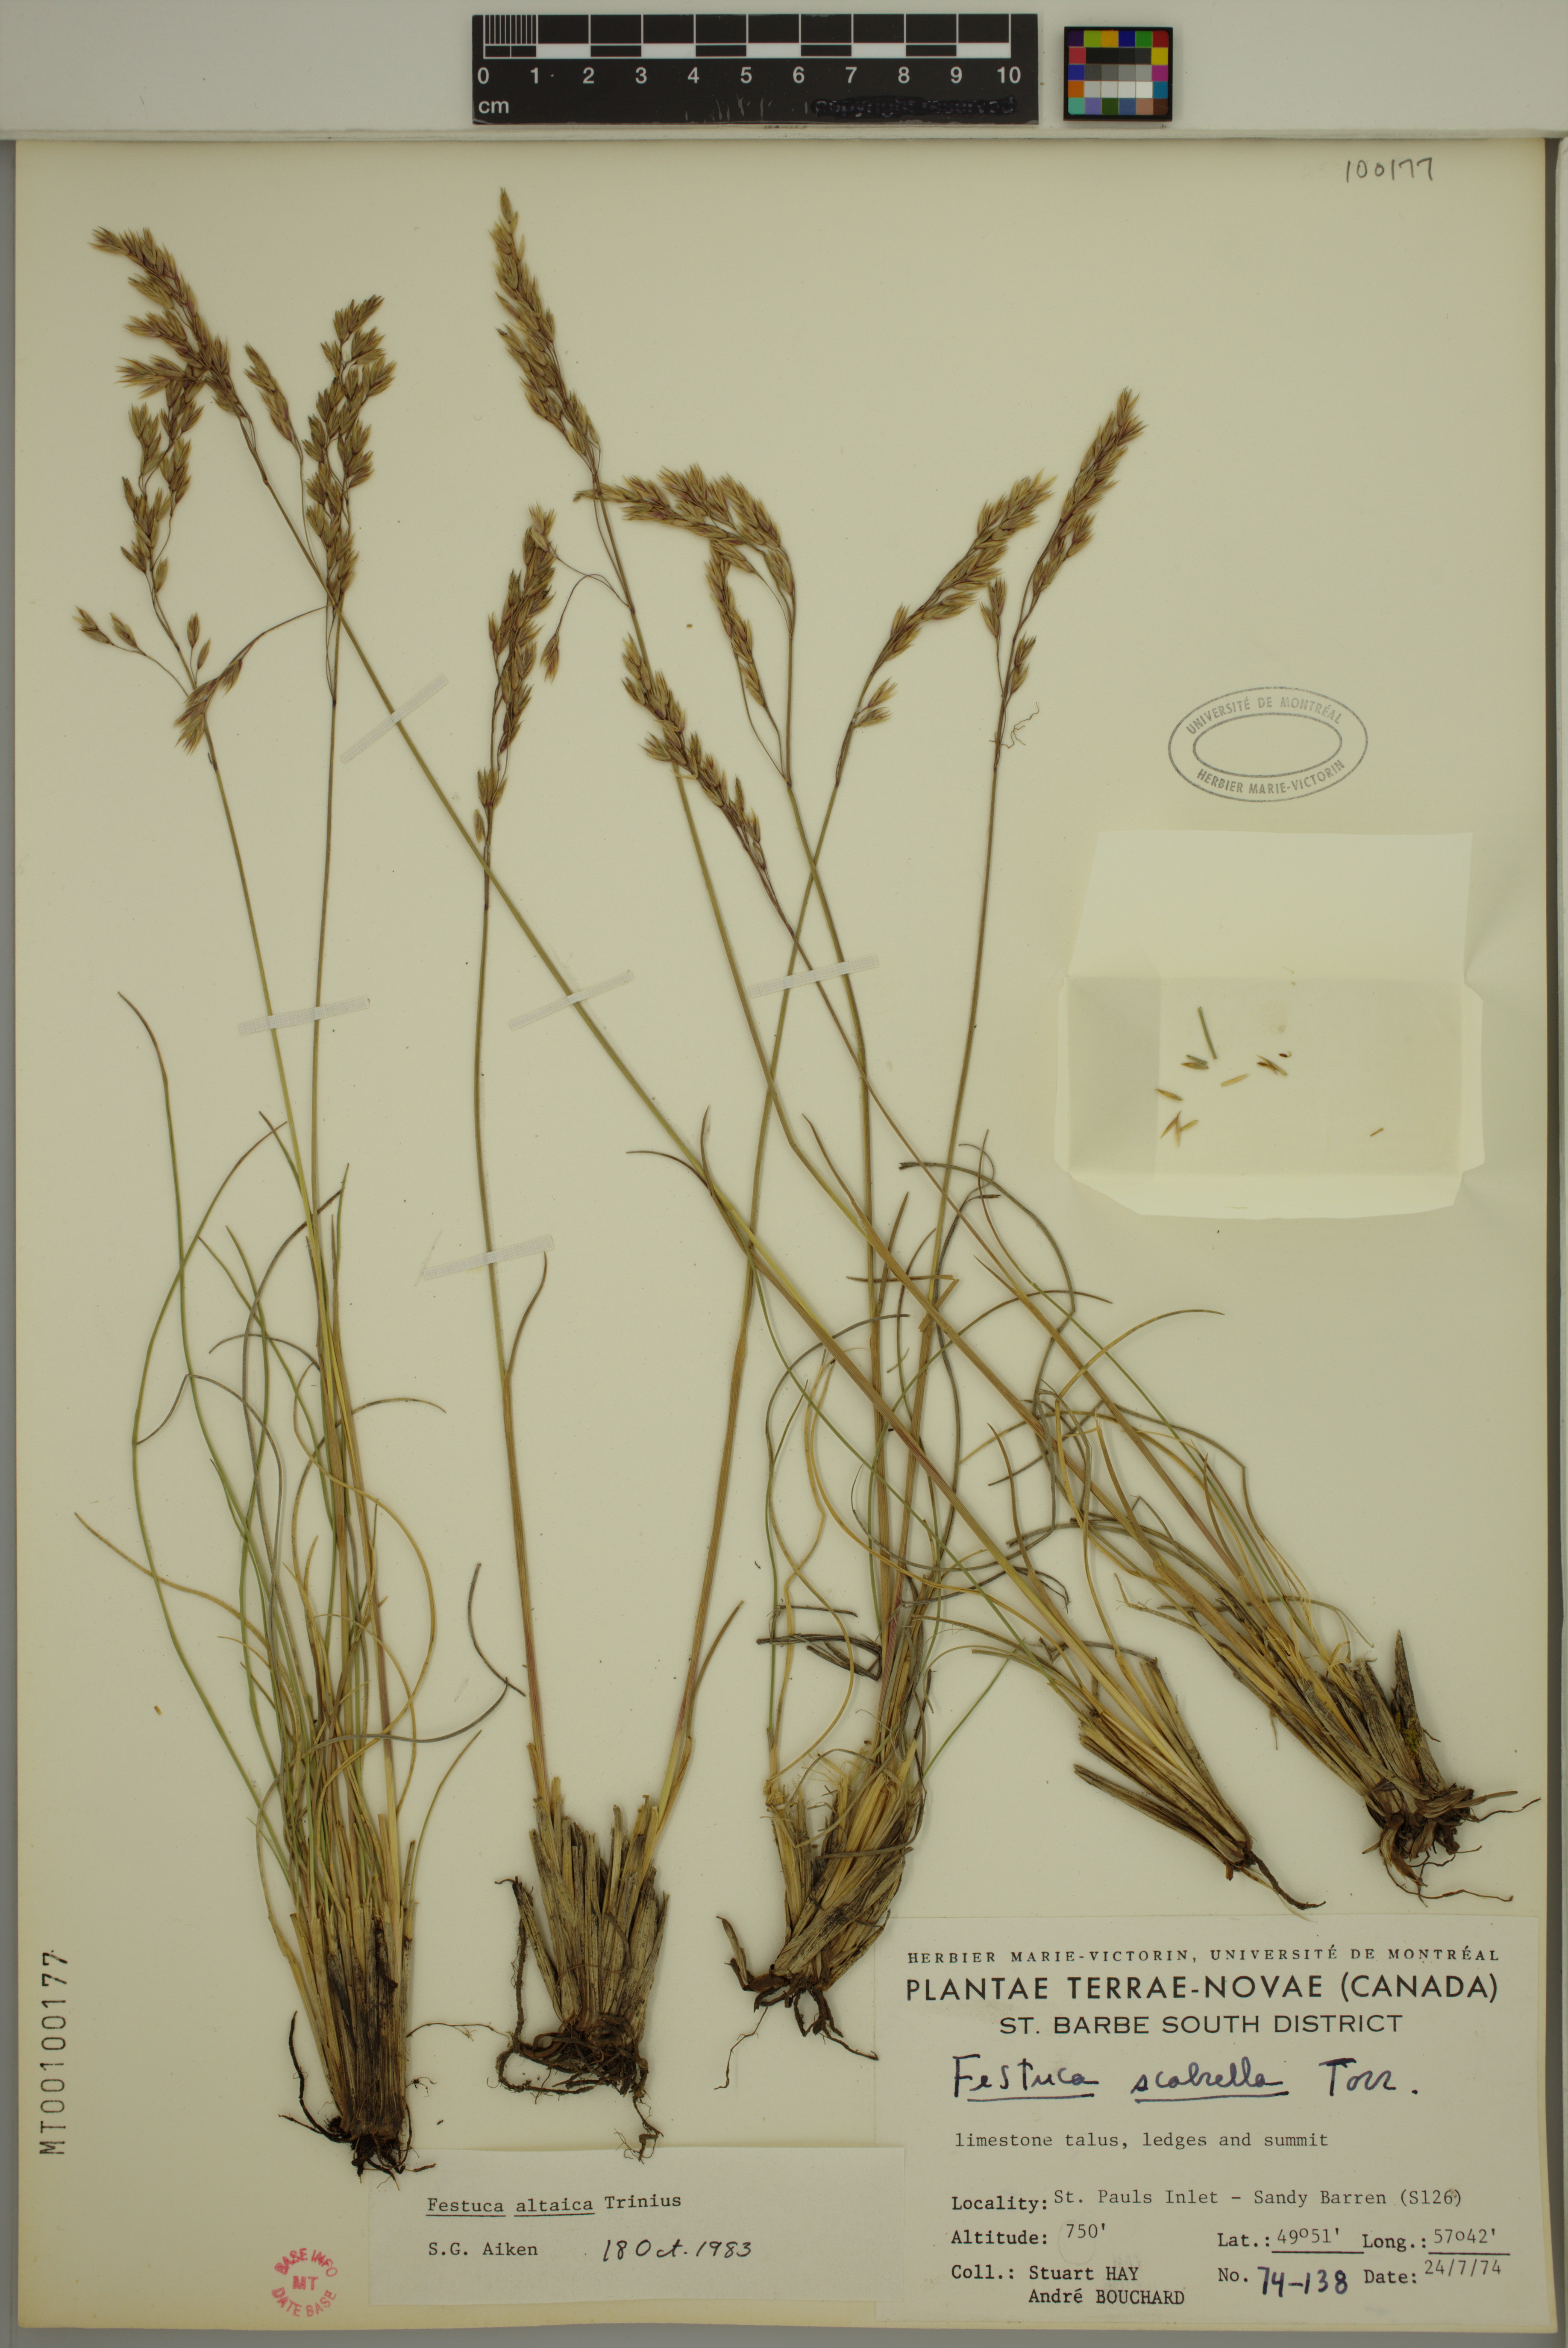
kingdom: Plantae
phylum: Tracheophyta
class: Liliopsida
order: Poales
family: Poaceae
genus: Festuca
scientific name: Festuca altaica
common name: Northern rough fescue
